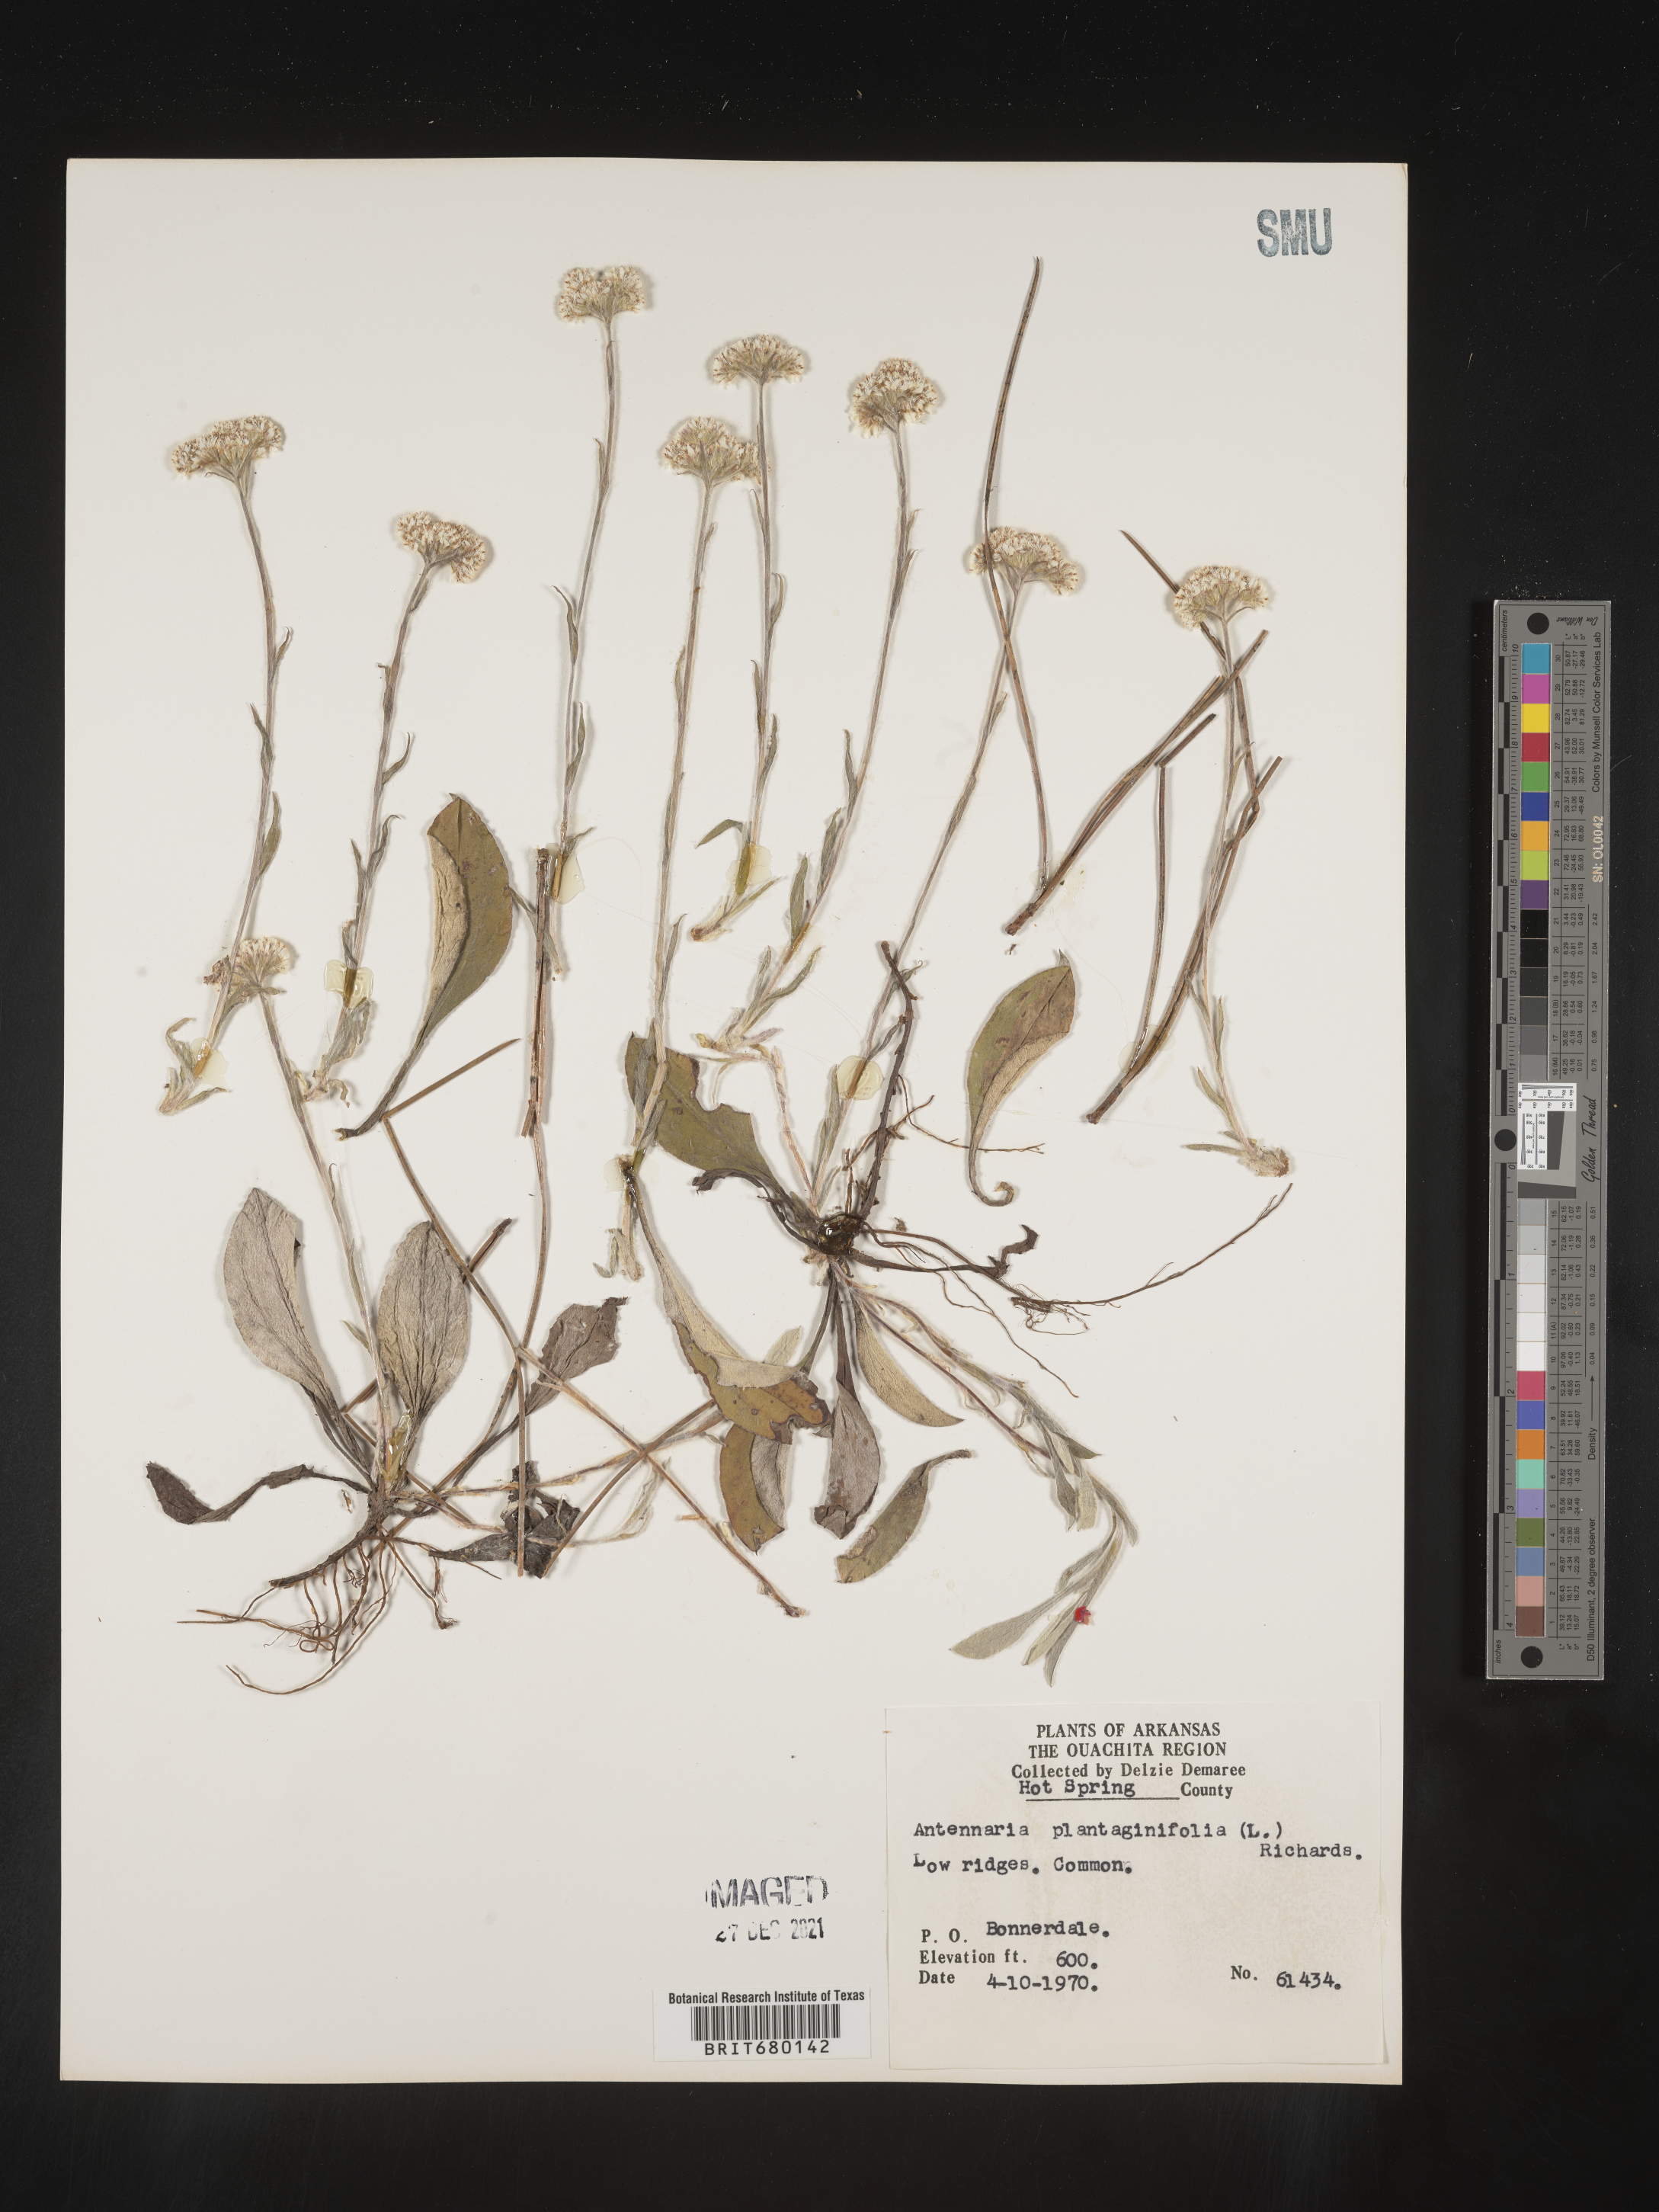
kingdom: Plantae
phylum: Tracheophyta
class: Magnoliopsida
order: Asterales
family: Asteraceae
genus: Antennaria
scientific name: Antennaria plantaginifolia
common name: Plantain-leaved pussytoes
